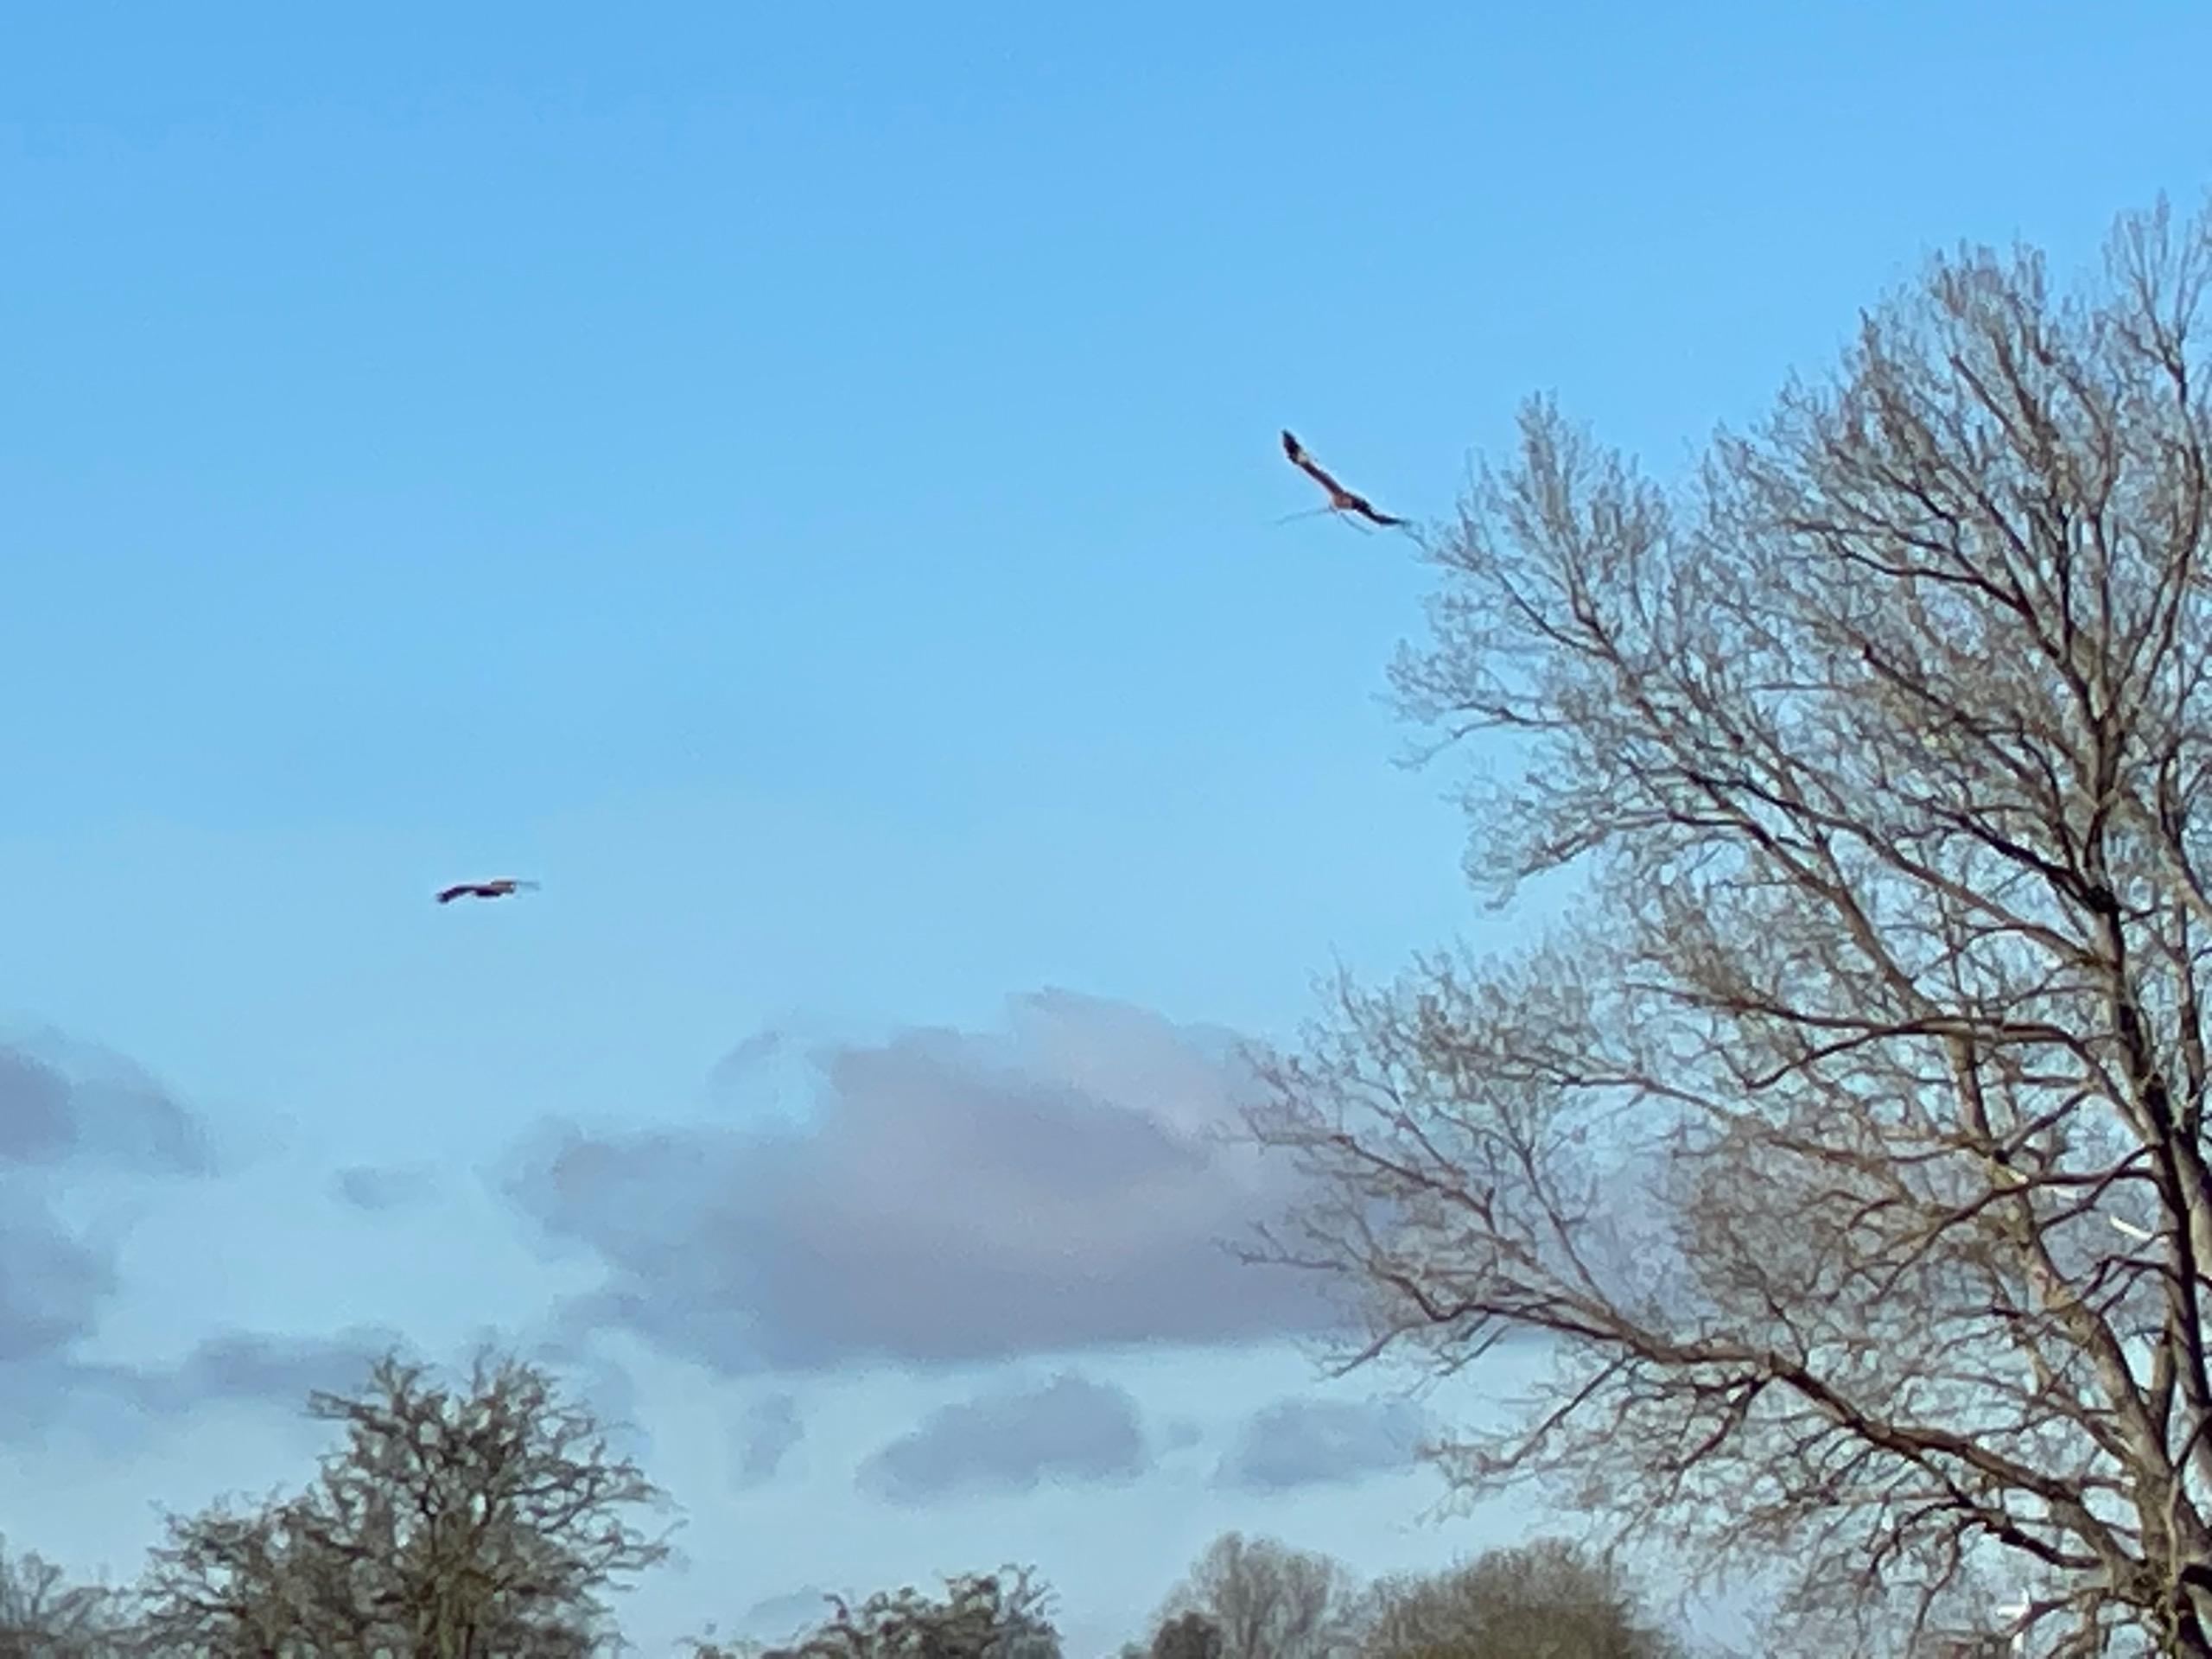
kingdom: Animalia
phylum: Chordata
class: Aves
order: Accipitriformes
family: Accipitridae
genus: Milvus
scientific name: Milvus milvus
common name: Rød glente
